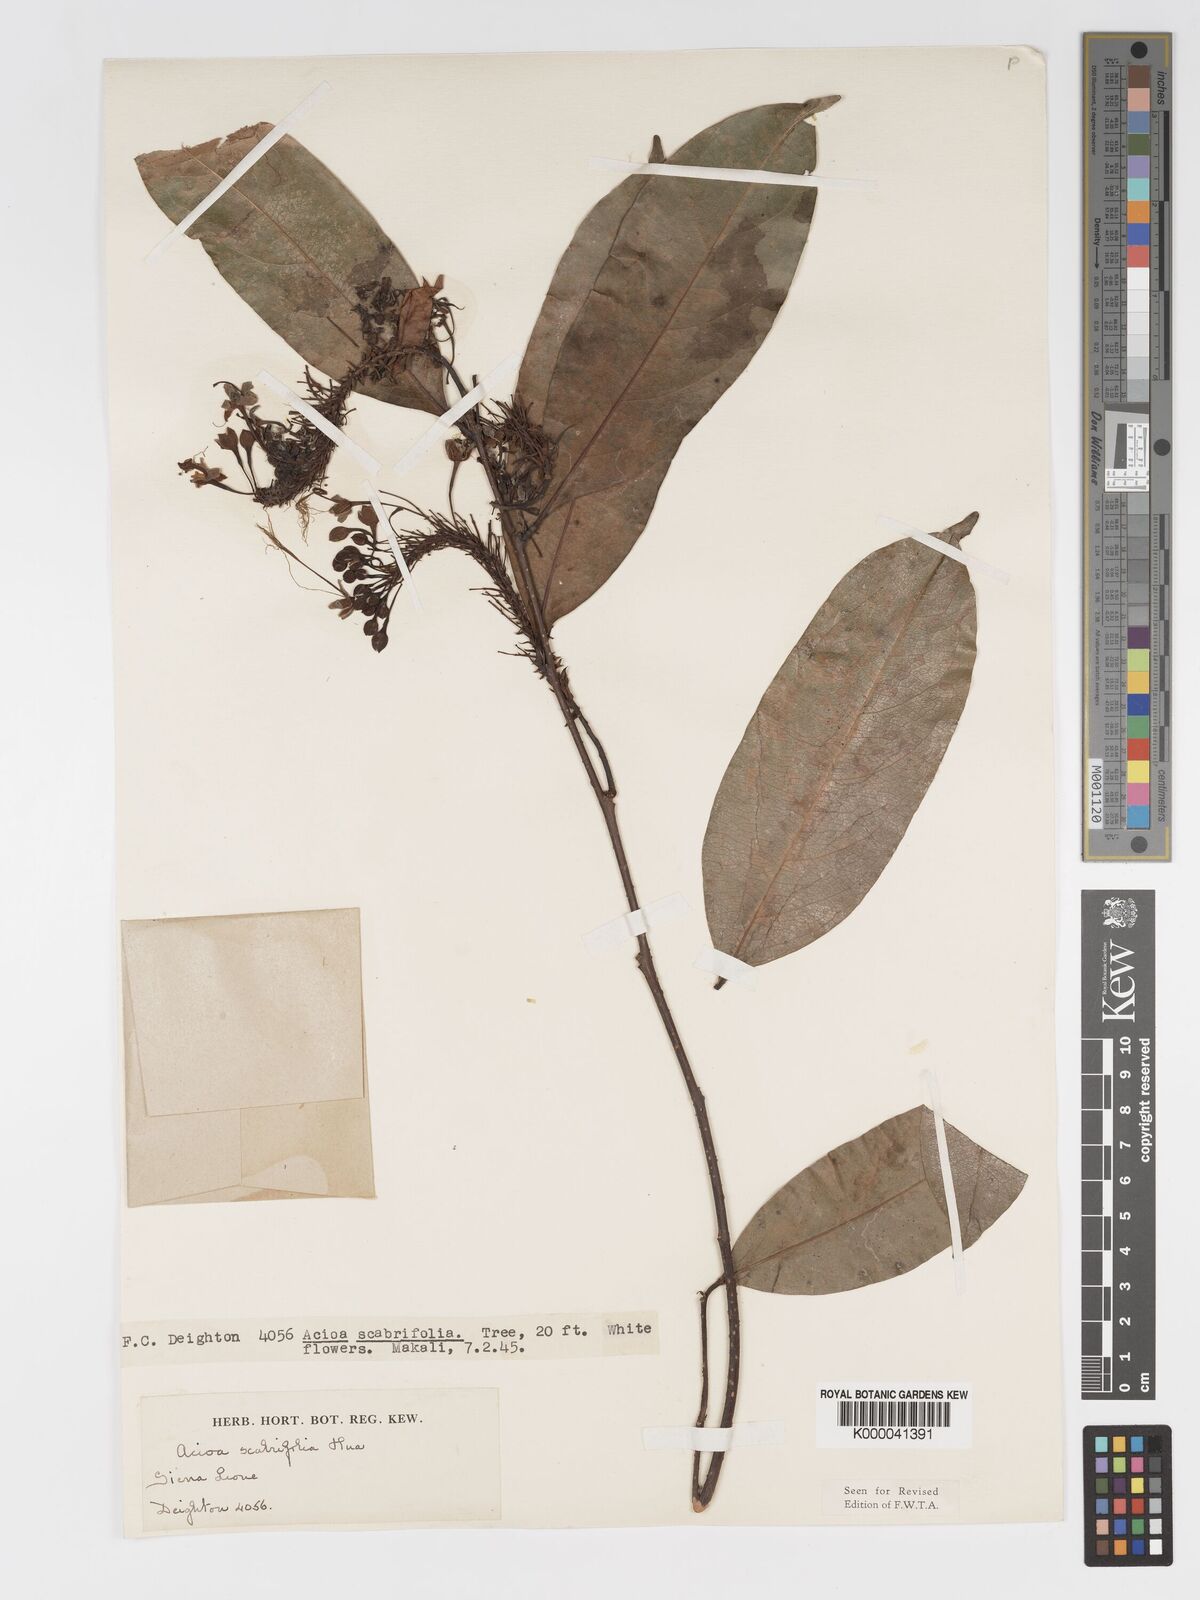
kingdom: Plantae
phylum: Tracheophyta
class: Magnoliopsida
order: Malpighiales
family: Chrysobalanaceae
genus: Dactyladenia
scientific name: Dactyladenia scabrifolia
